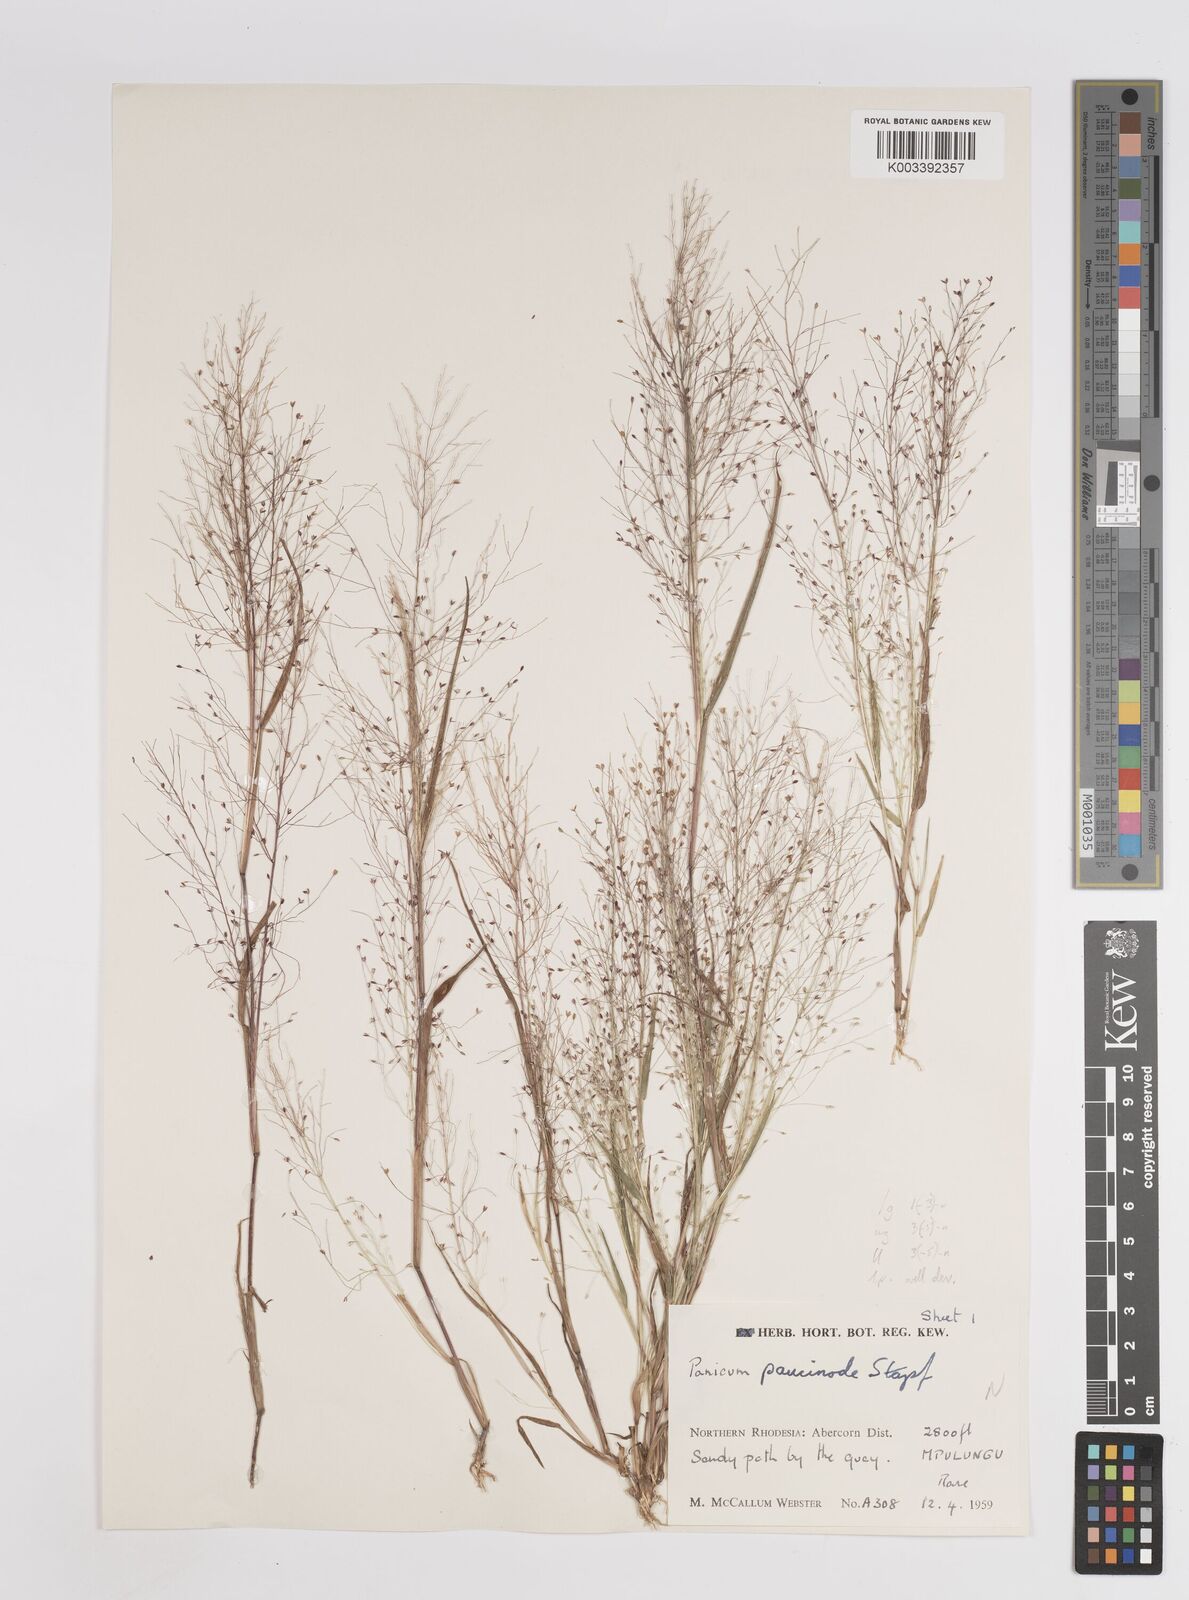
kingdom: Plantae
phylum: Tracheophyta
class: Liliopsida
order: Poales
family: Poaceae
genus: Panicum
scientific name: Panicum humile
